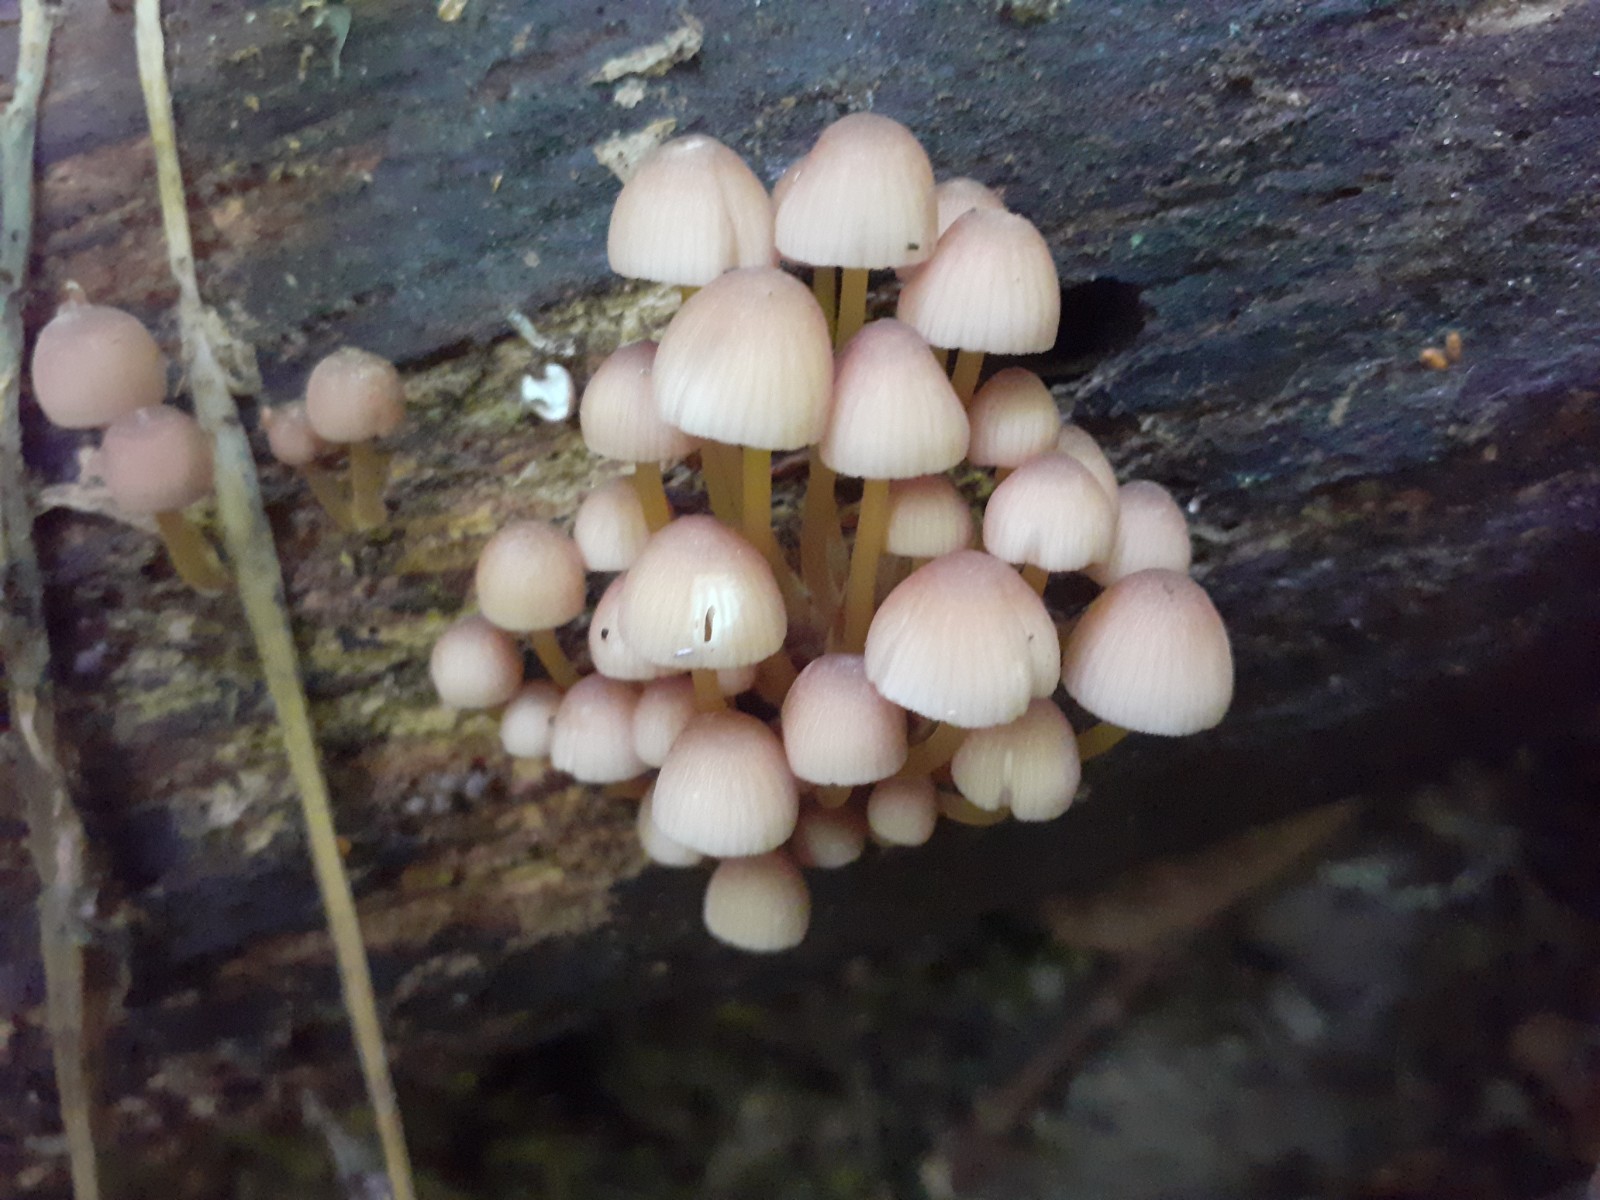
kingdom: Fungi
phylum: Basidiomycota
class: Agaricomycetes
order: Agaricales
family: Mycenaceae
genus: Mycena
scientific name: Mycena renati
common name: smuk huesvamp
